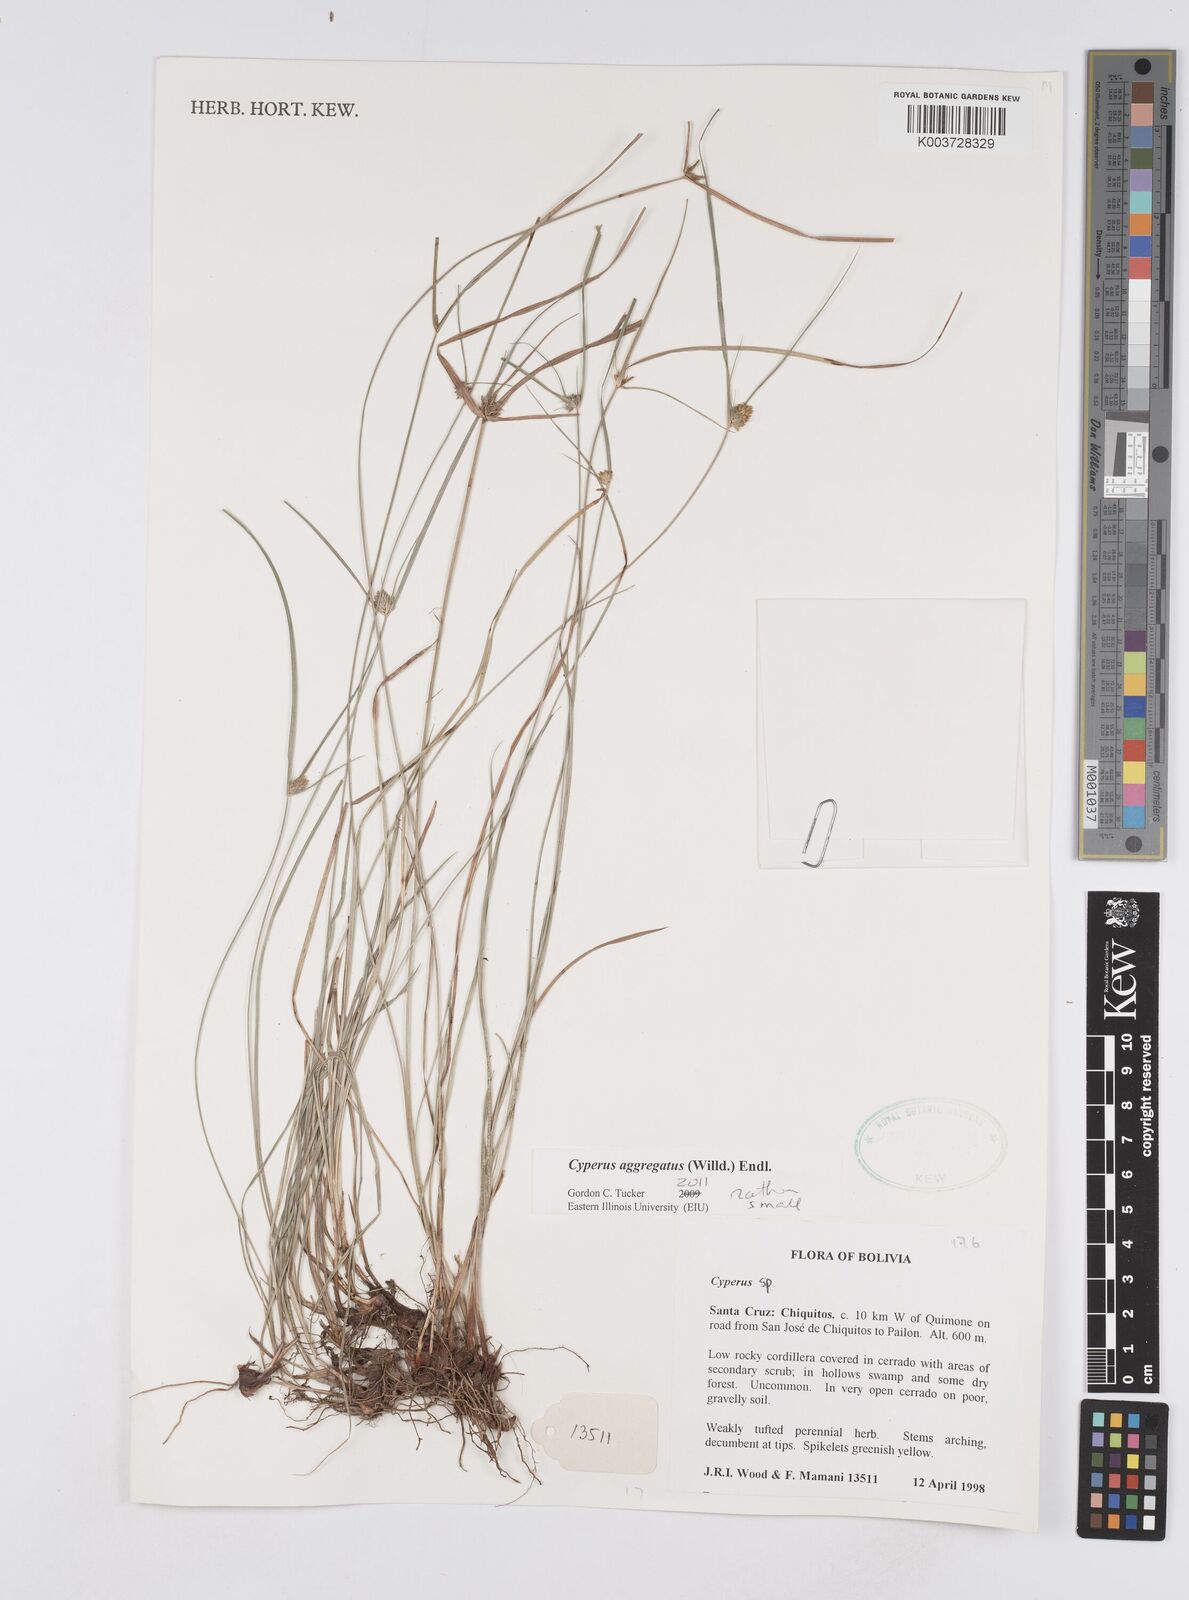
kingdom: Plantae
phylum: Tracheophyta
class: Liliopsida
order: Poales
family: Cyperaceae
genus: Cyperus
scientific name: Cyperus aggregatus
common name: Inflatedscale flatsedge
